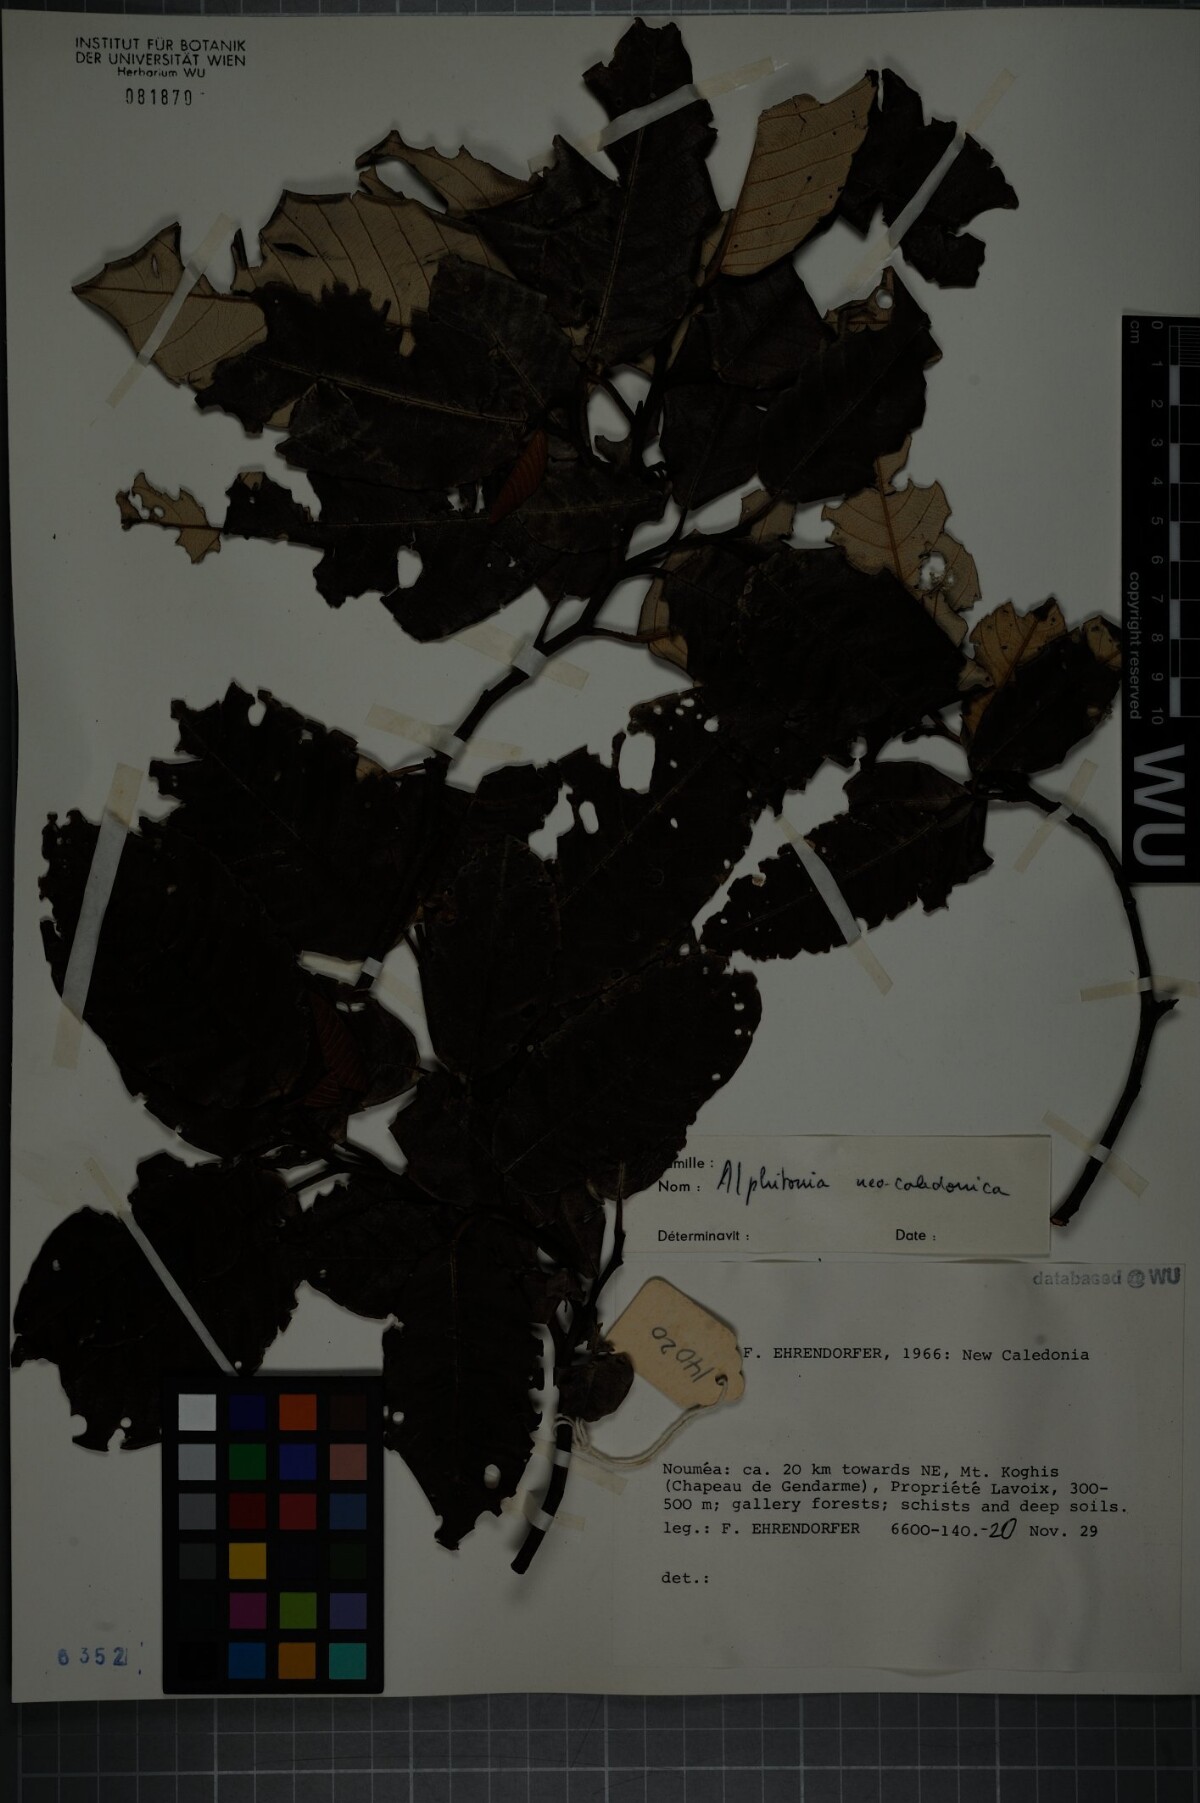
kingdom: Plantae
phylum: Tracheophyta
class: Magnoliopsida
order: Rosales
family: Rhamnaceae
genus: Alphitonia
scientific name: Alphitonia neocaledonica
